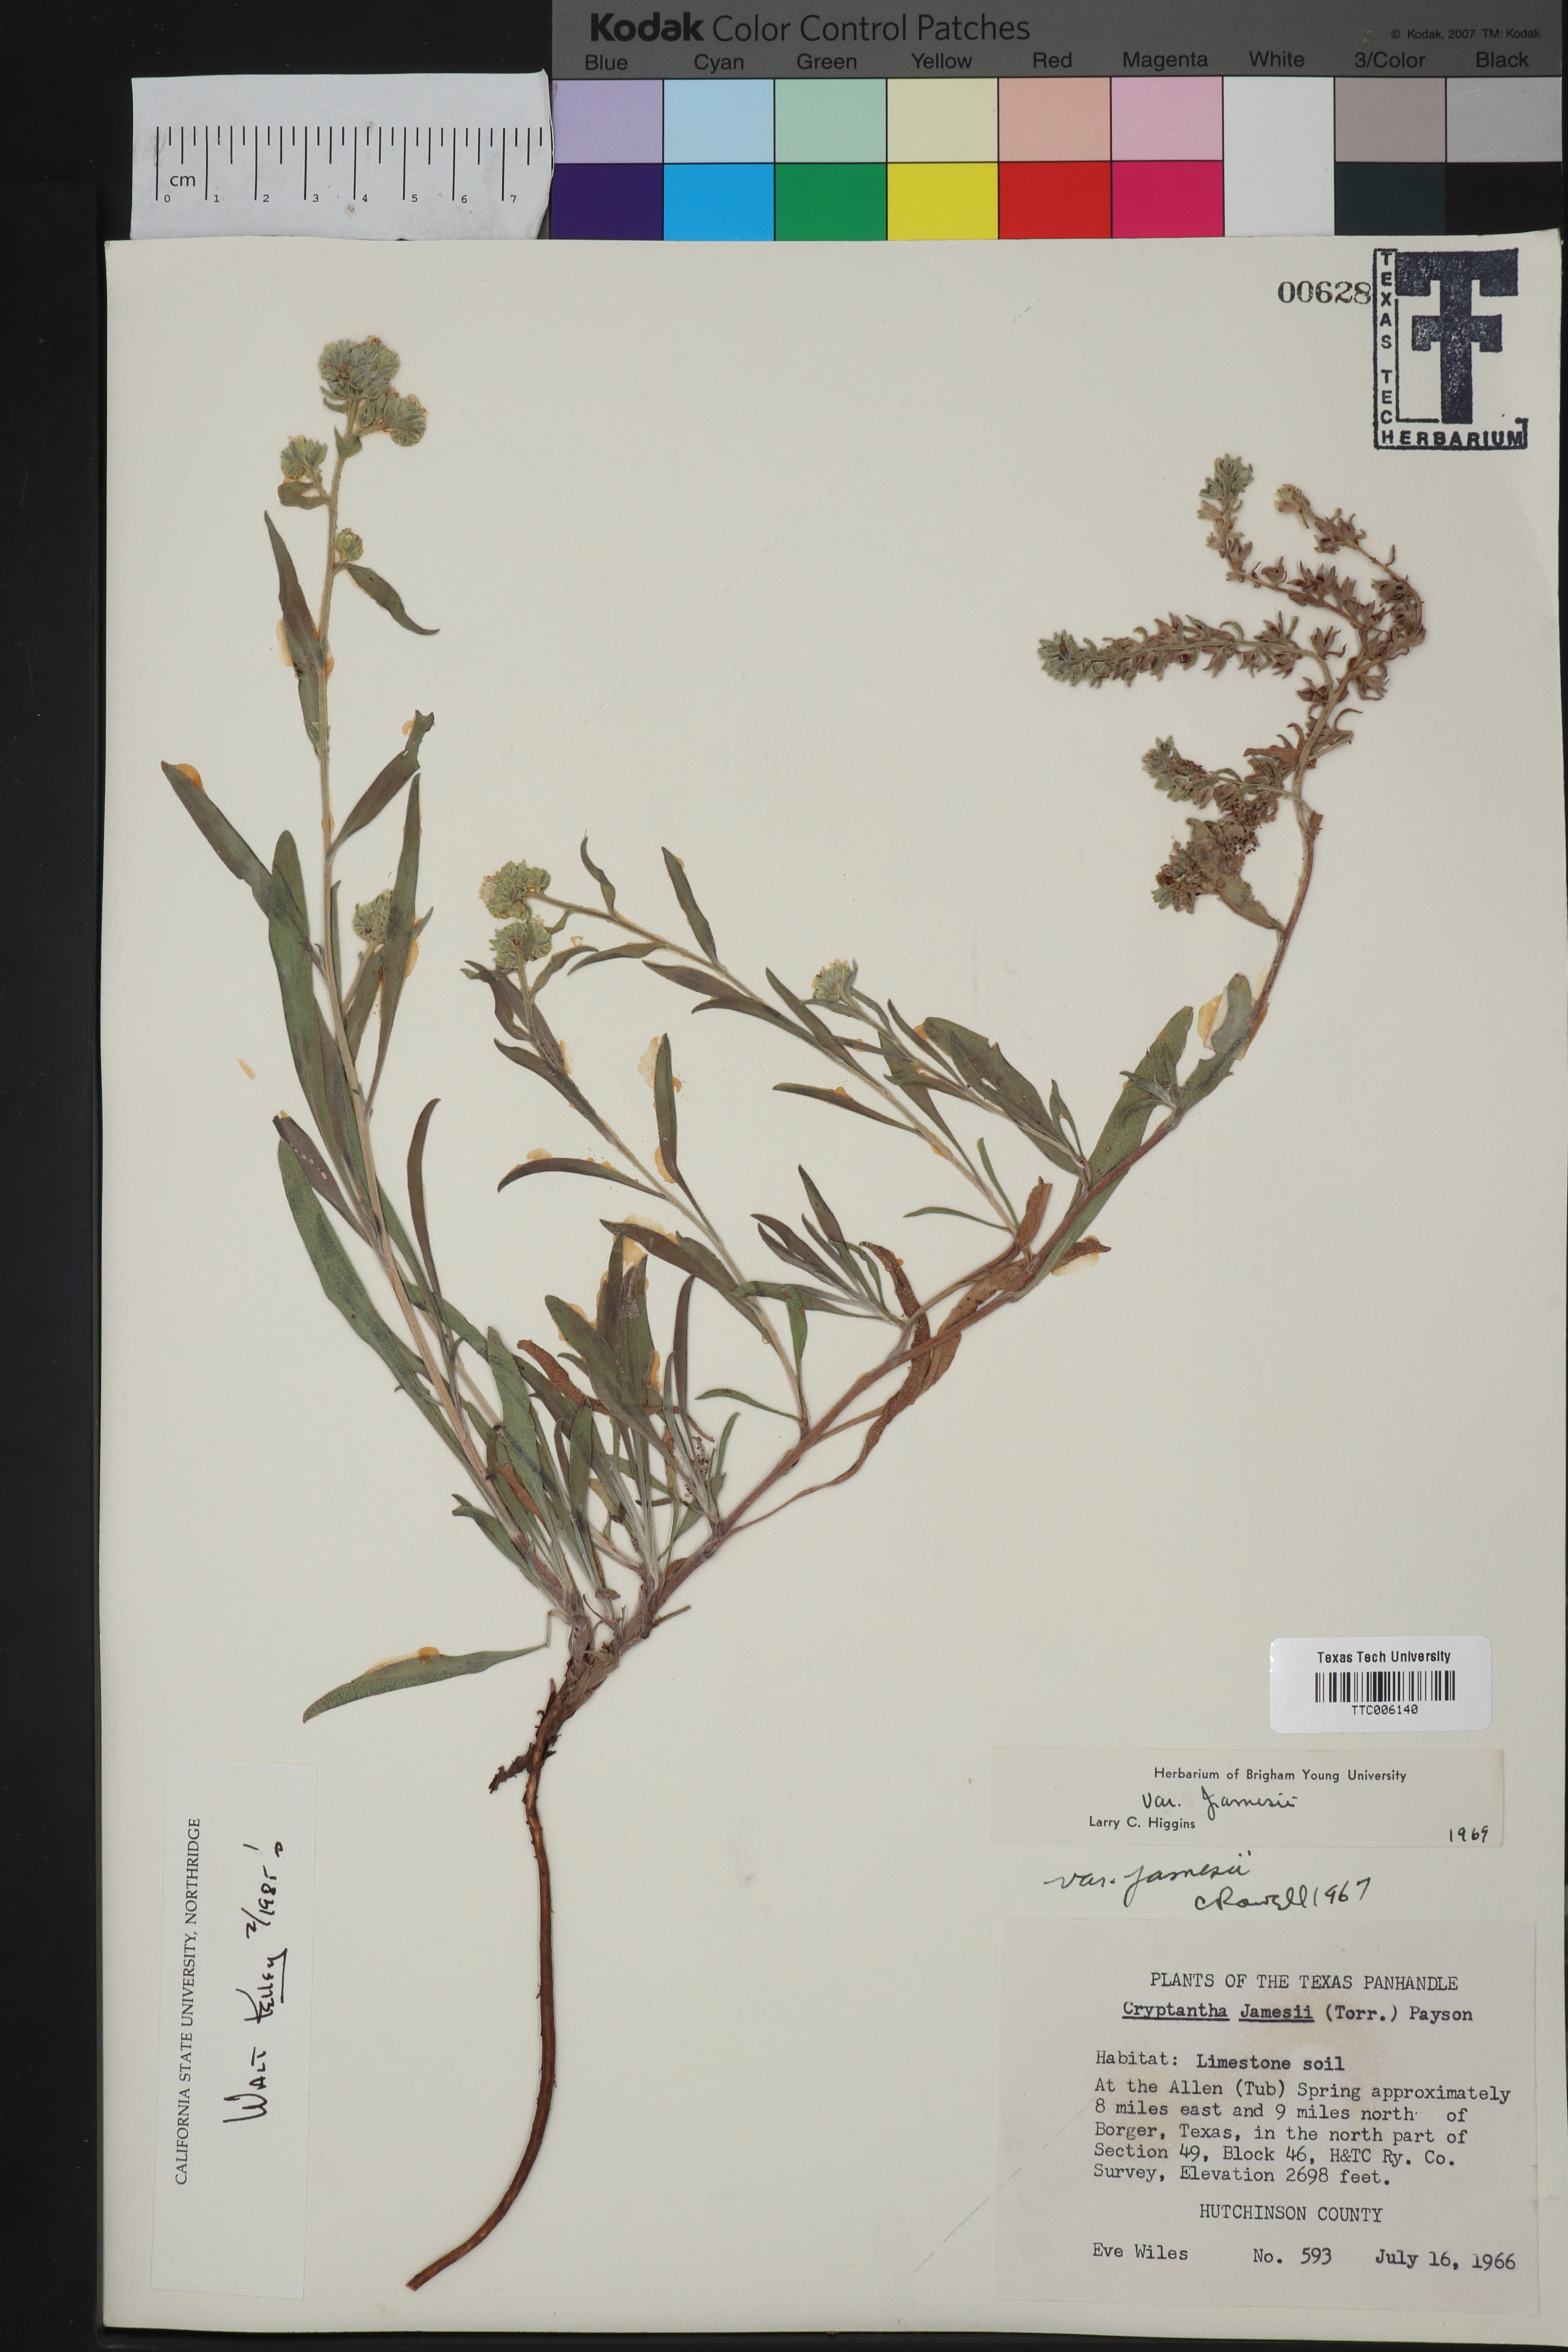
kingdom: Plantae
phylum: Tracheophyta
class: Magnoliopsida
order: Boraginales
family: Boraginaceae
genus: Oreocarya
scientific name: Oreocarya suffruticosa
